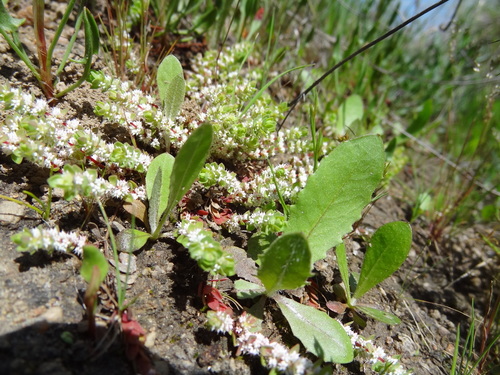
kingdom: Plantae
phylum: Tracheophyta
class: Magnoliopsida
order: Caryophyllales
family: Caryophyllaceae
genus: Illecebrum
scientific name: Illecebrum verticillatum
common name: Coral necklace
